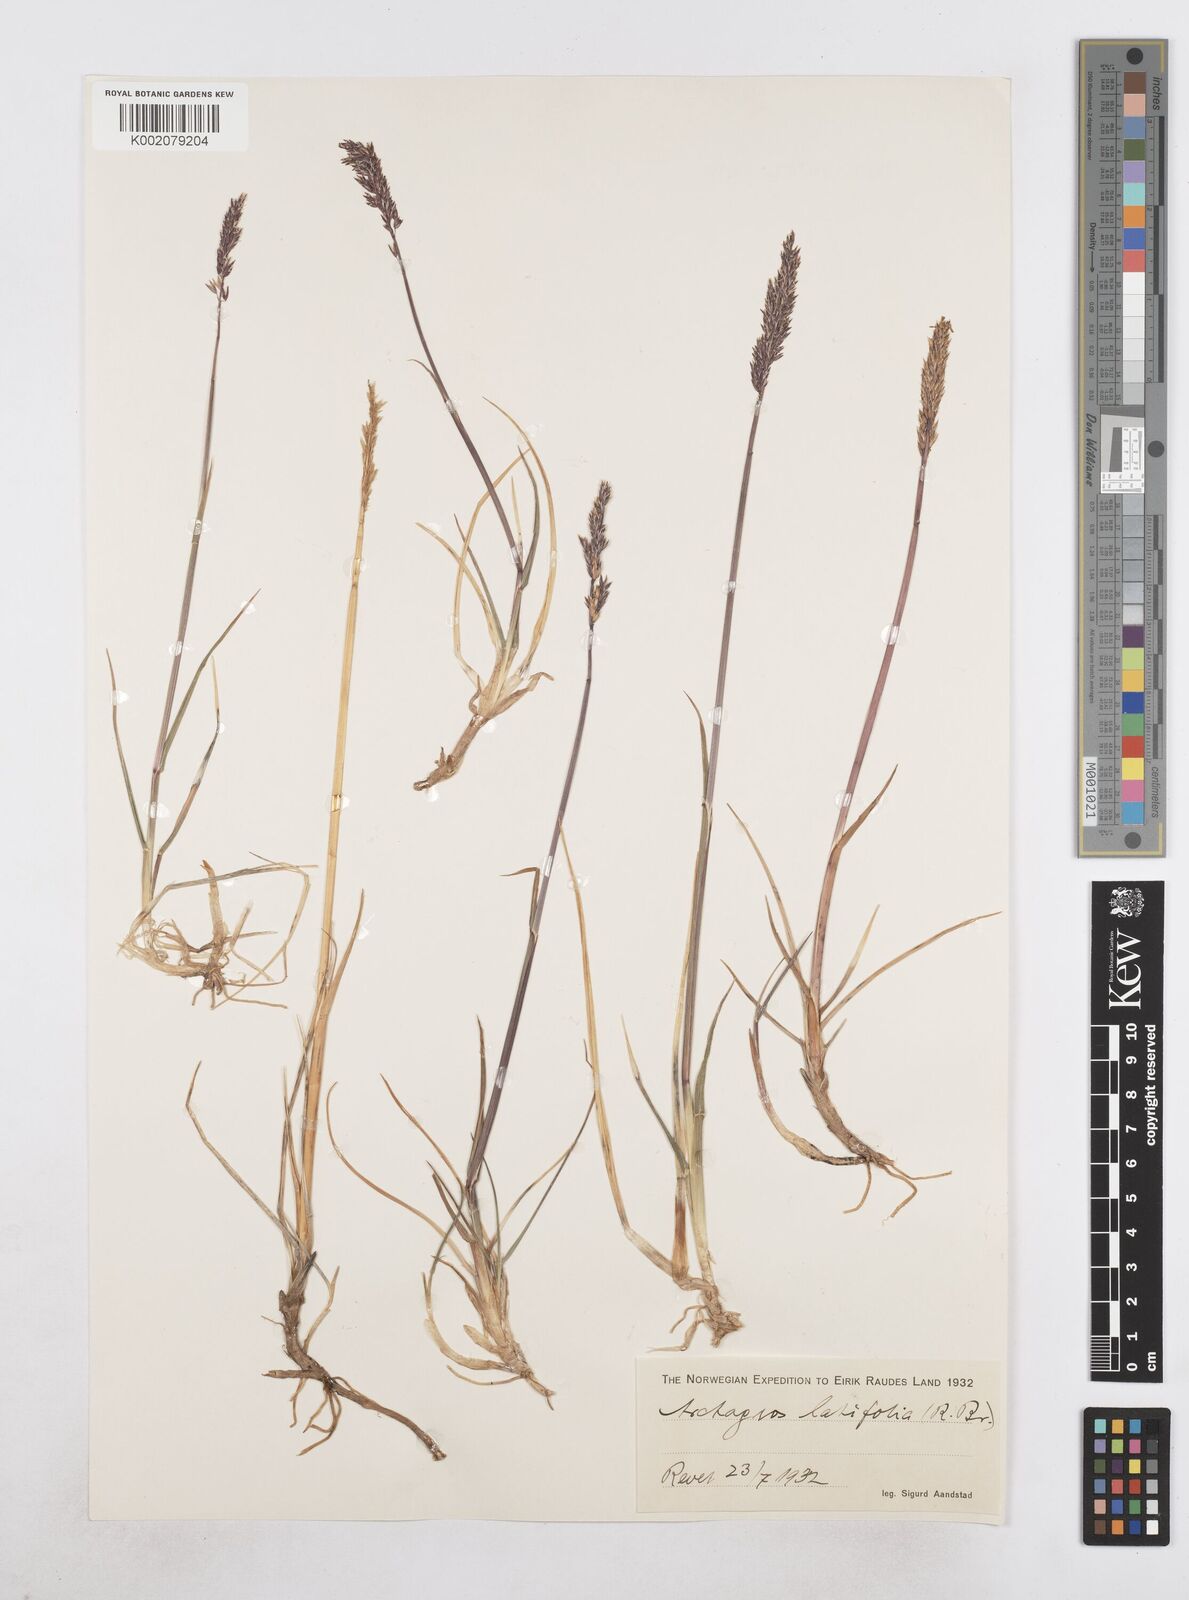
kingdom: Plantae
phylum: Tracheophyta
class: Liliopsida
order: Poales
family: Poaceae
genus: Arctagrostis
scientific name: Arctagrostis latifolia
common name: Arctic grass
